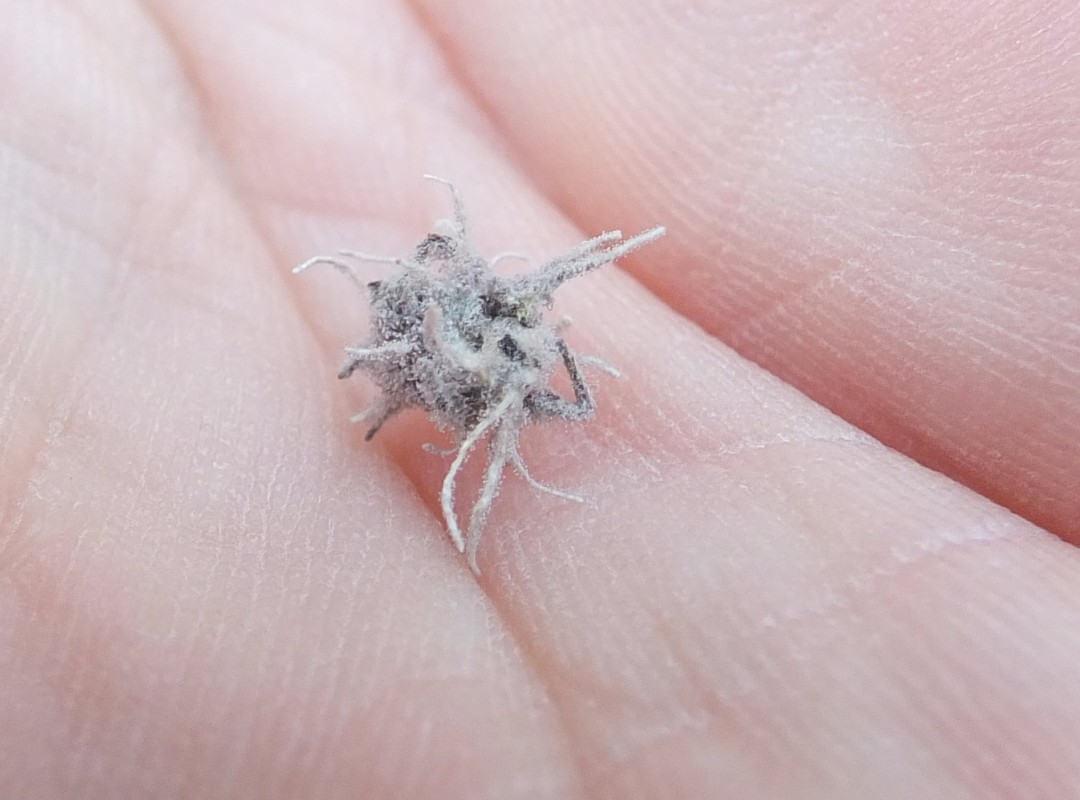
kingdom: Fungi
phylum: Ascomycota
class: Sordariomycetes
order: Hypocreales
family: Cordycipitaceae
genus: Gibellula
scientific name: Gibellula pulchra
